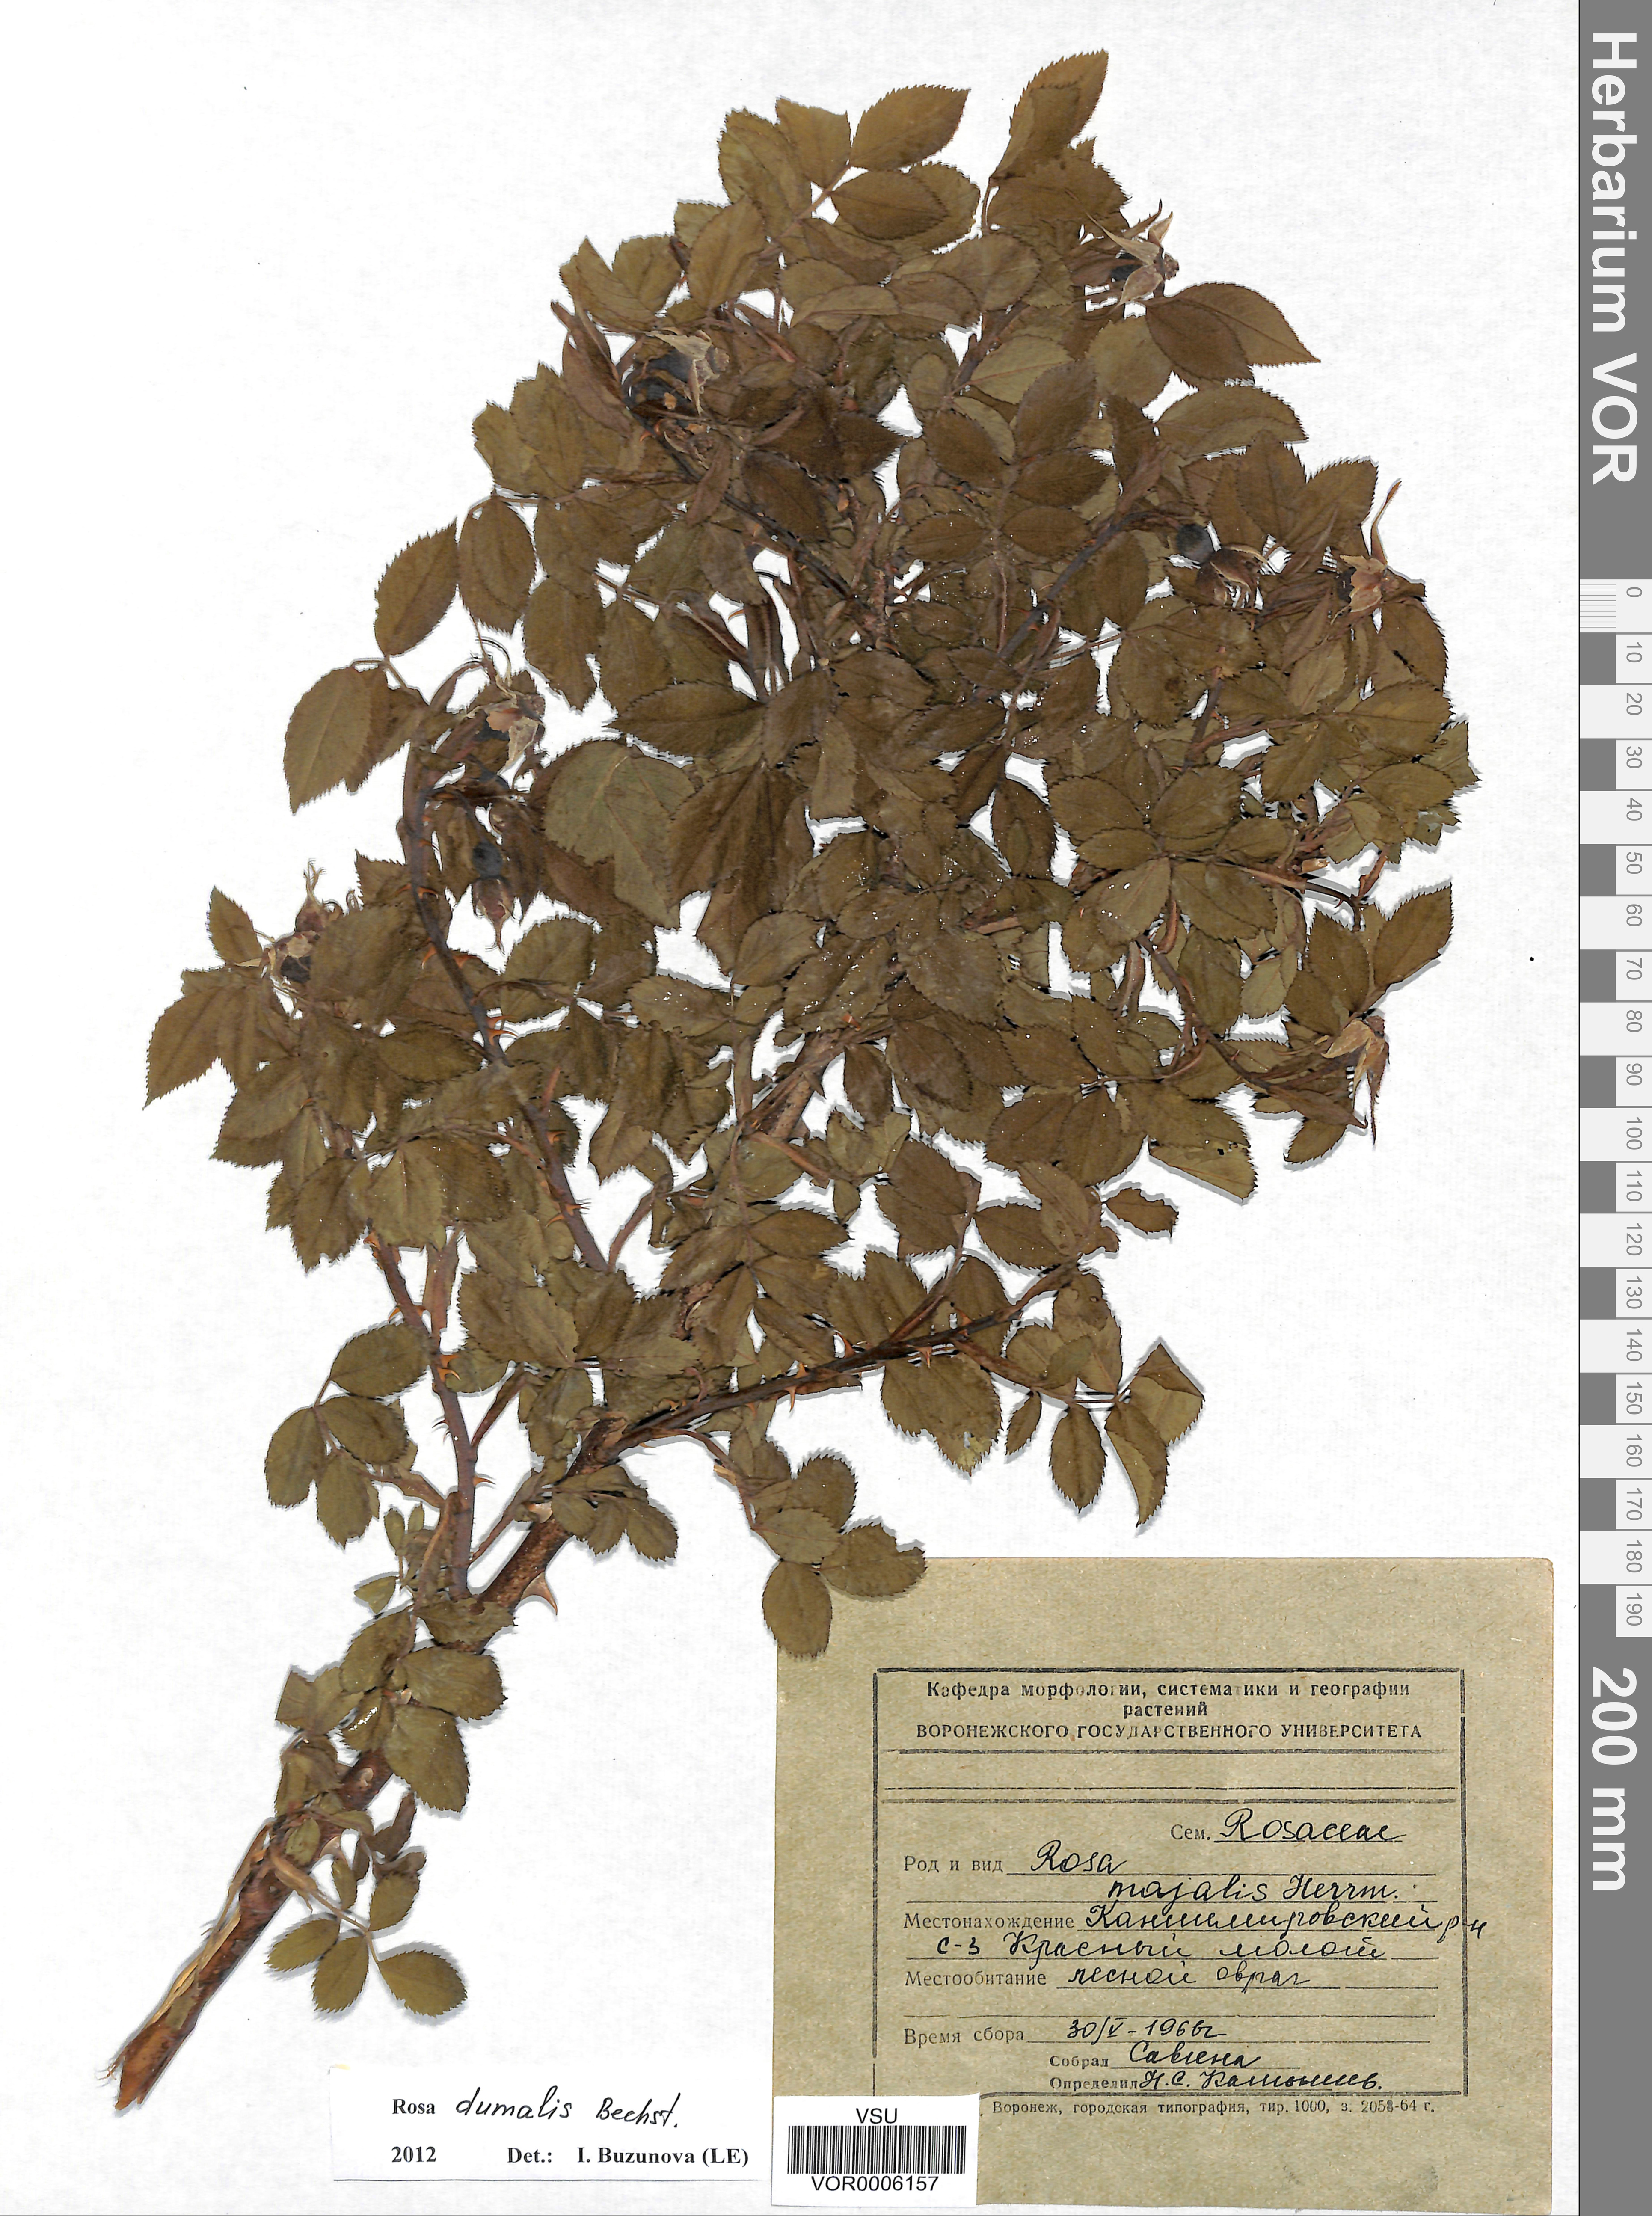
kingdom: Plantae
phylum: Tracheophyta
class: Magnoliopsida
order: Rosales
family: Rosaceae
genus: Rosa
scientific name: Rosa majalis
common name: Cinnamon rose
